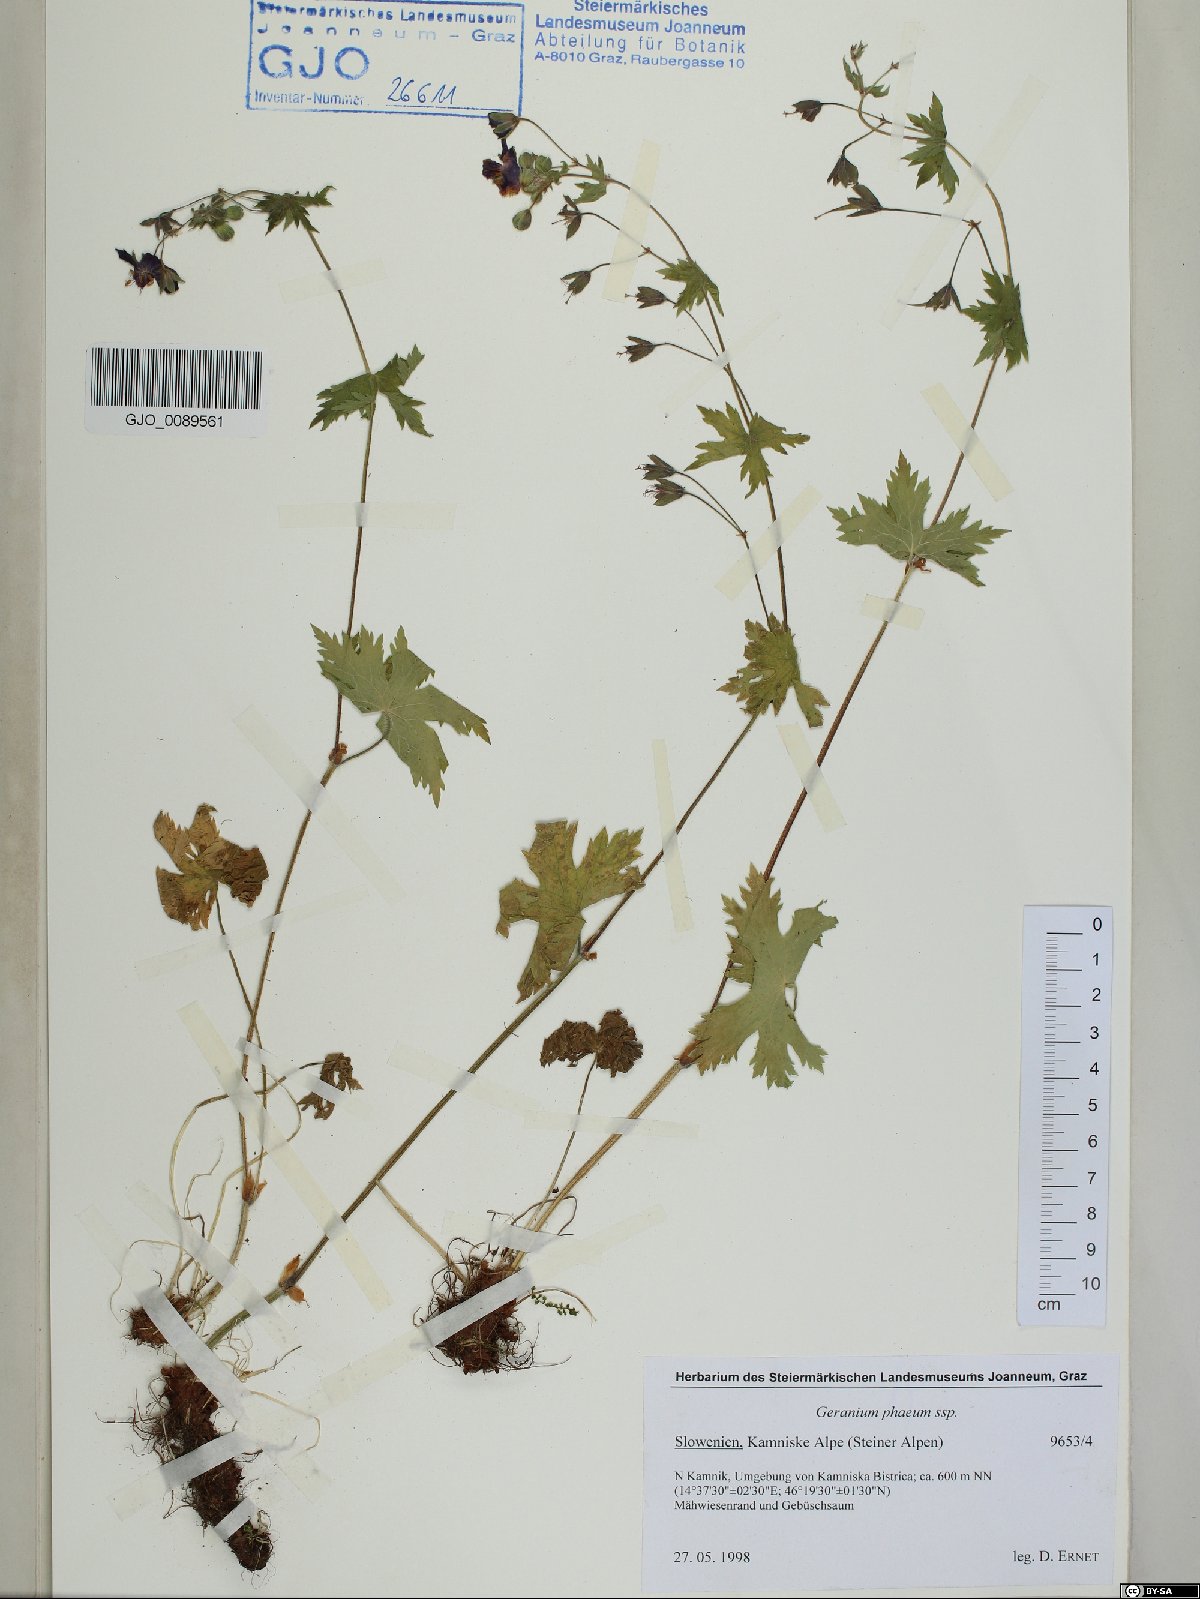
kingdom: Plantae
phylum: Tracheophyta
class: Magnoliopsida
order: Geraniales
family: Geraniaceae
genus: Geranium
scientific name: Geranium phaeum
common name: Dusky crane's-bill
